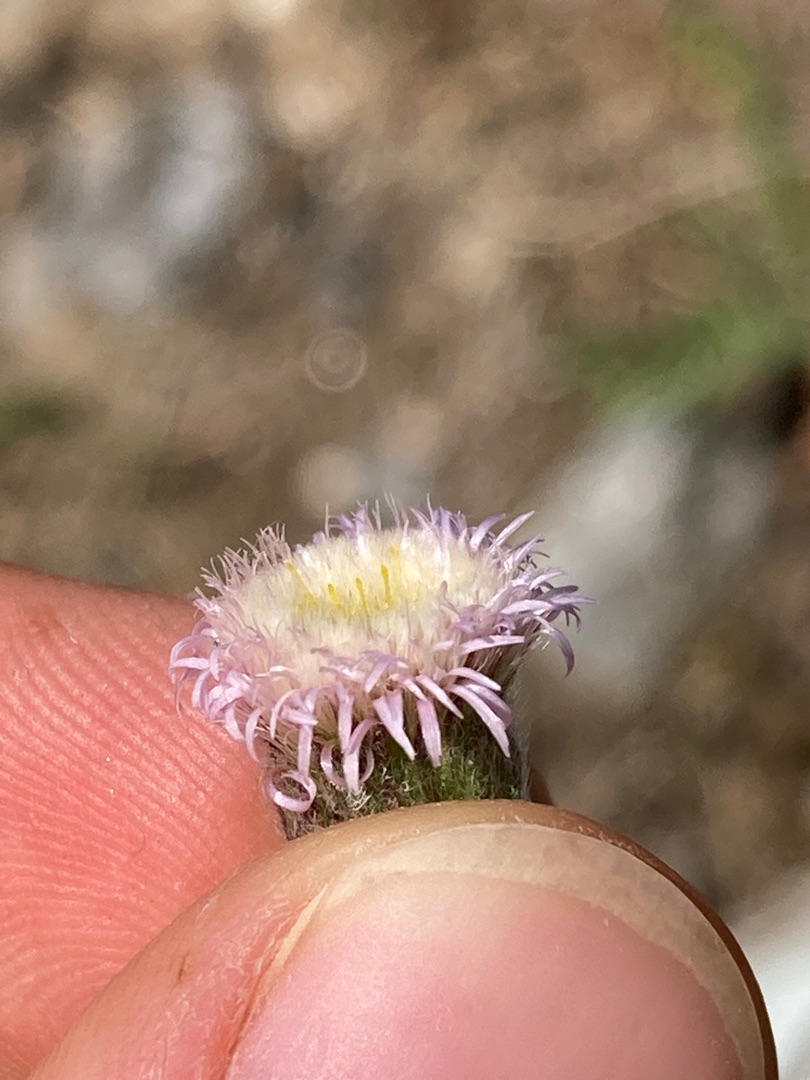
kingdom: Plantae
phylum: Tracheophyta
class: Magnoliopsida
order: Asterales
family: Asteraceae
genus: Erigeron
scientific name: Erigeron acris
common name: Bitter bakkestjerne
